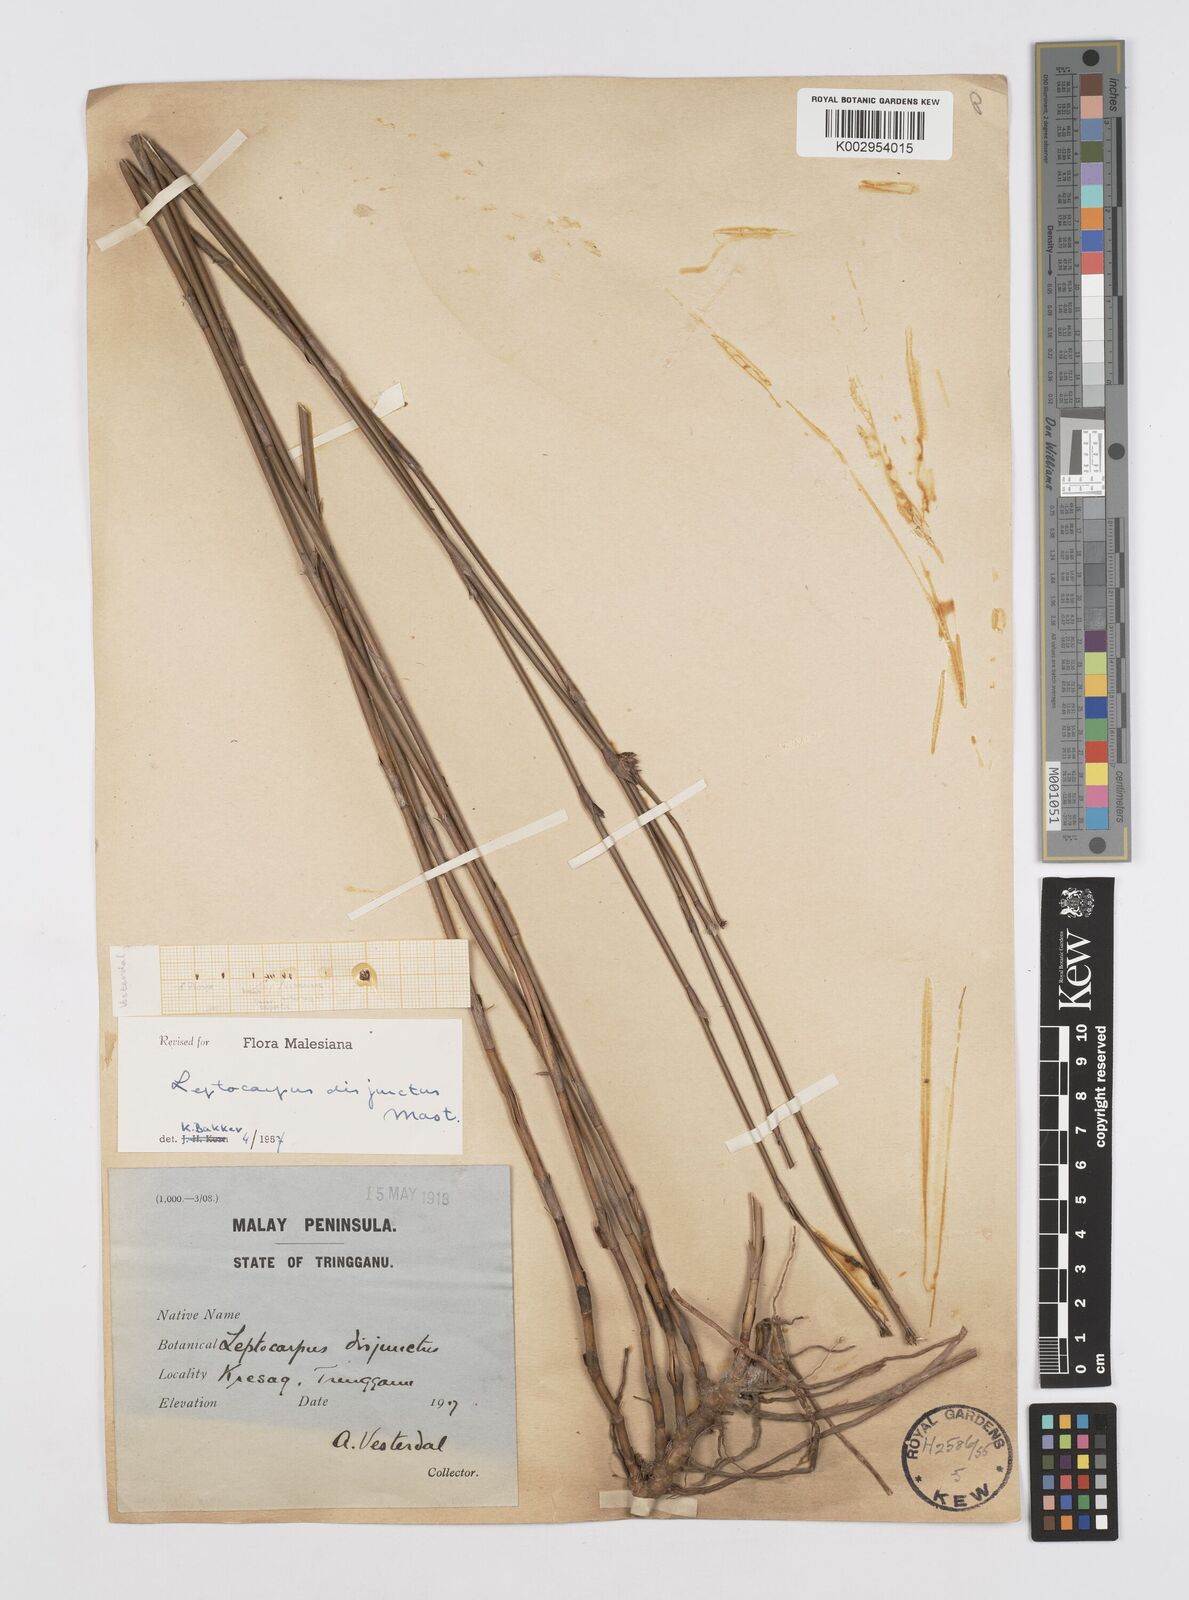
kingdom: Plantae
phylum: Tracheophyta
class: Liliopsida
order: Poales
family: Restionaceae
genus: Dapsilanthus
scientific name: Dapsilanthus disjunctus
